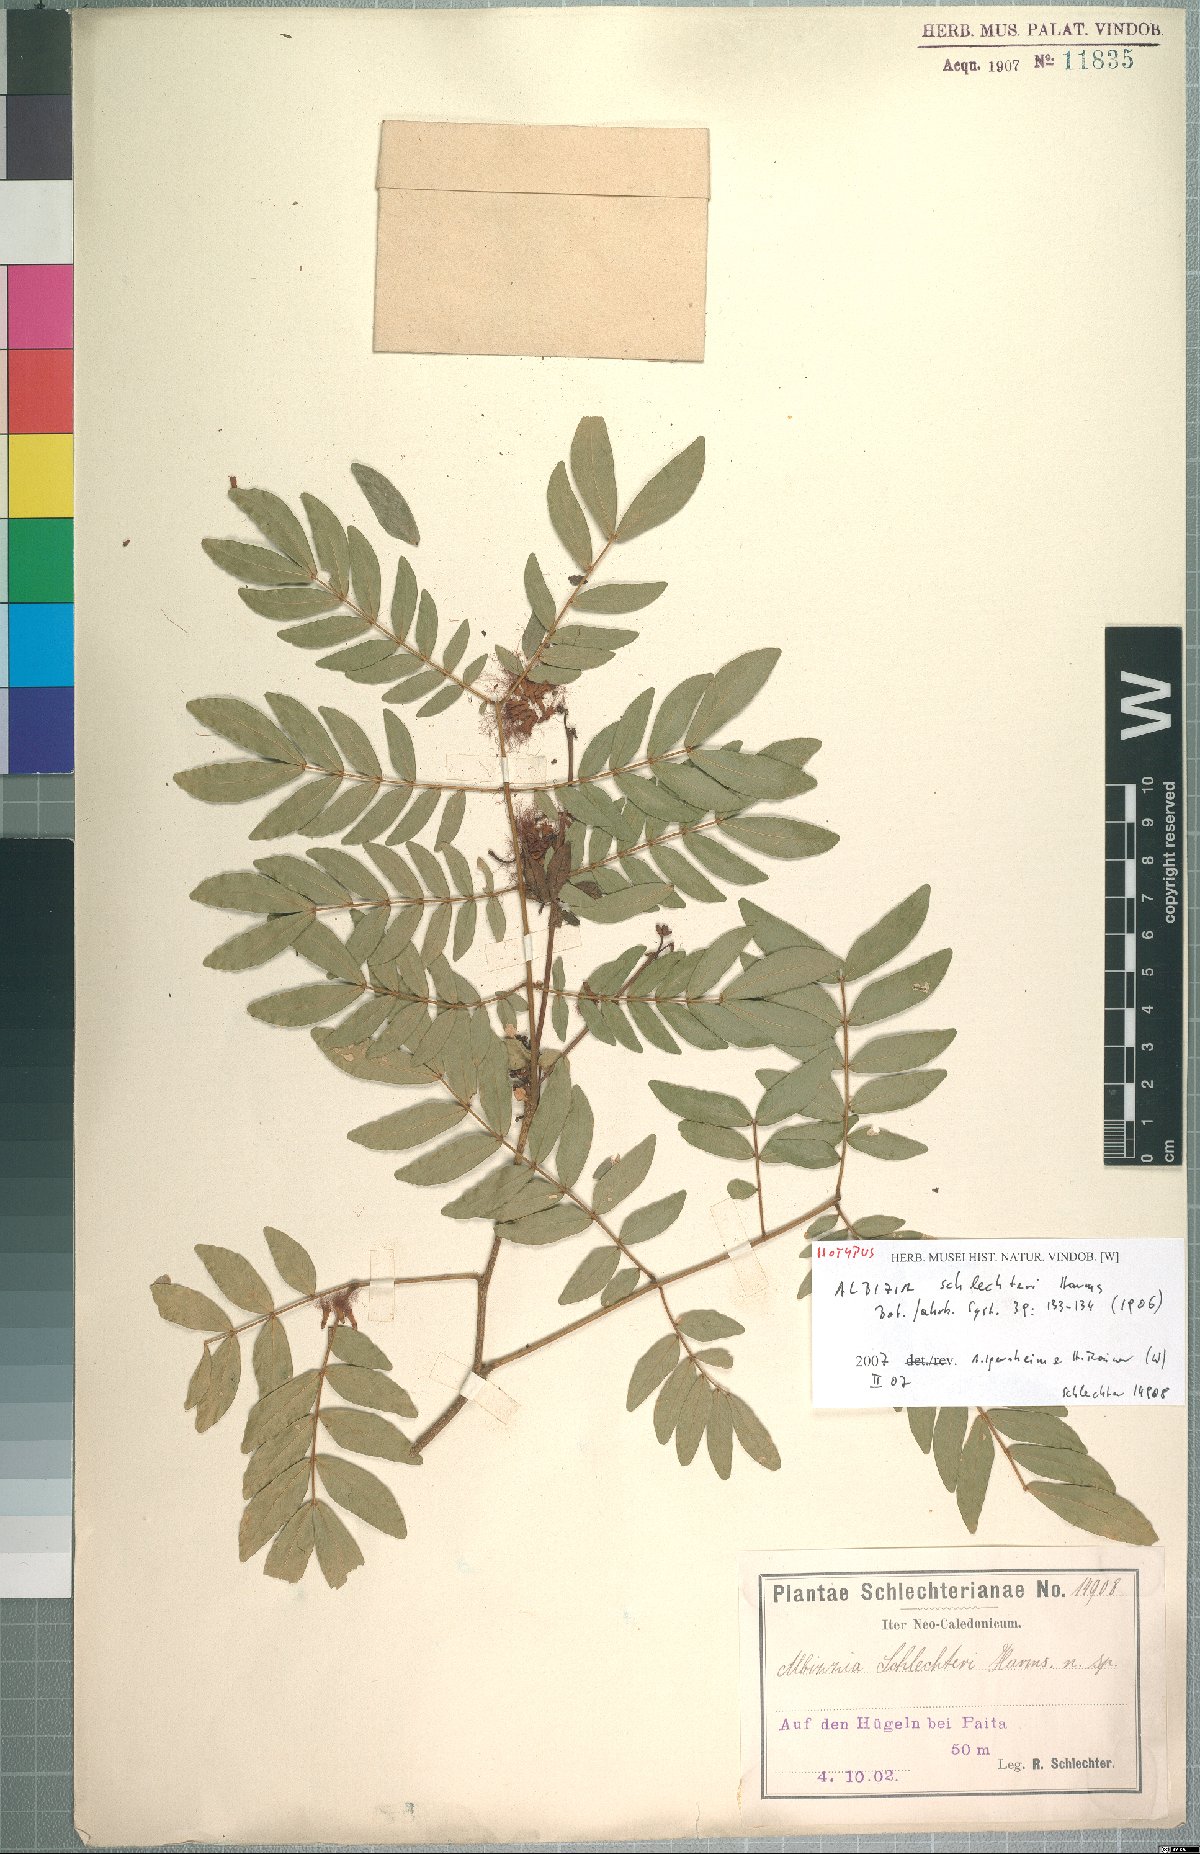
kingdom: Plantae
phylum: Tracheophyta
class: Magnoliopsida
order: Fabales
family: Fabaceae
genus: Archidendropsis
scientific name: Archidendropsis fournieri
